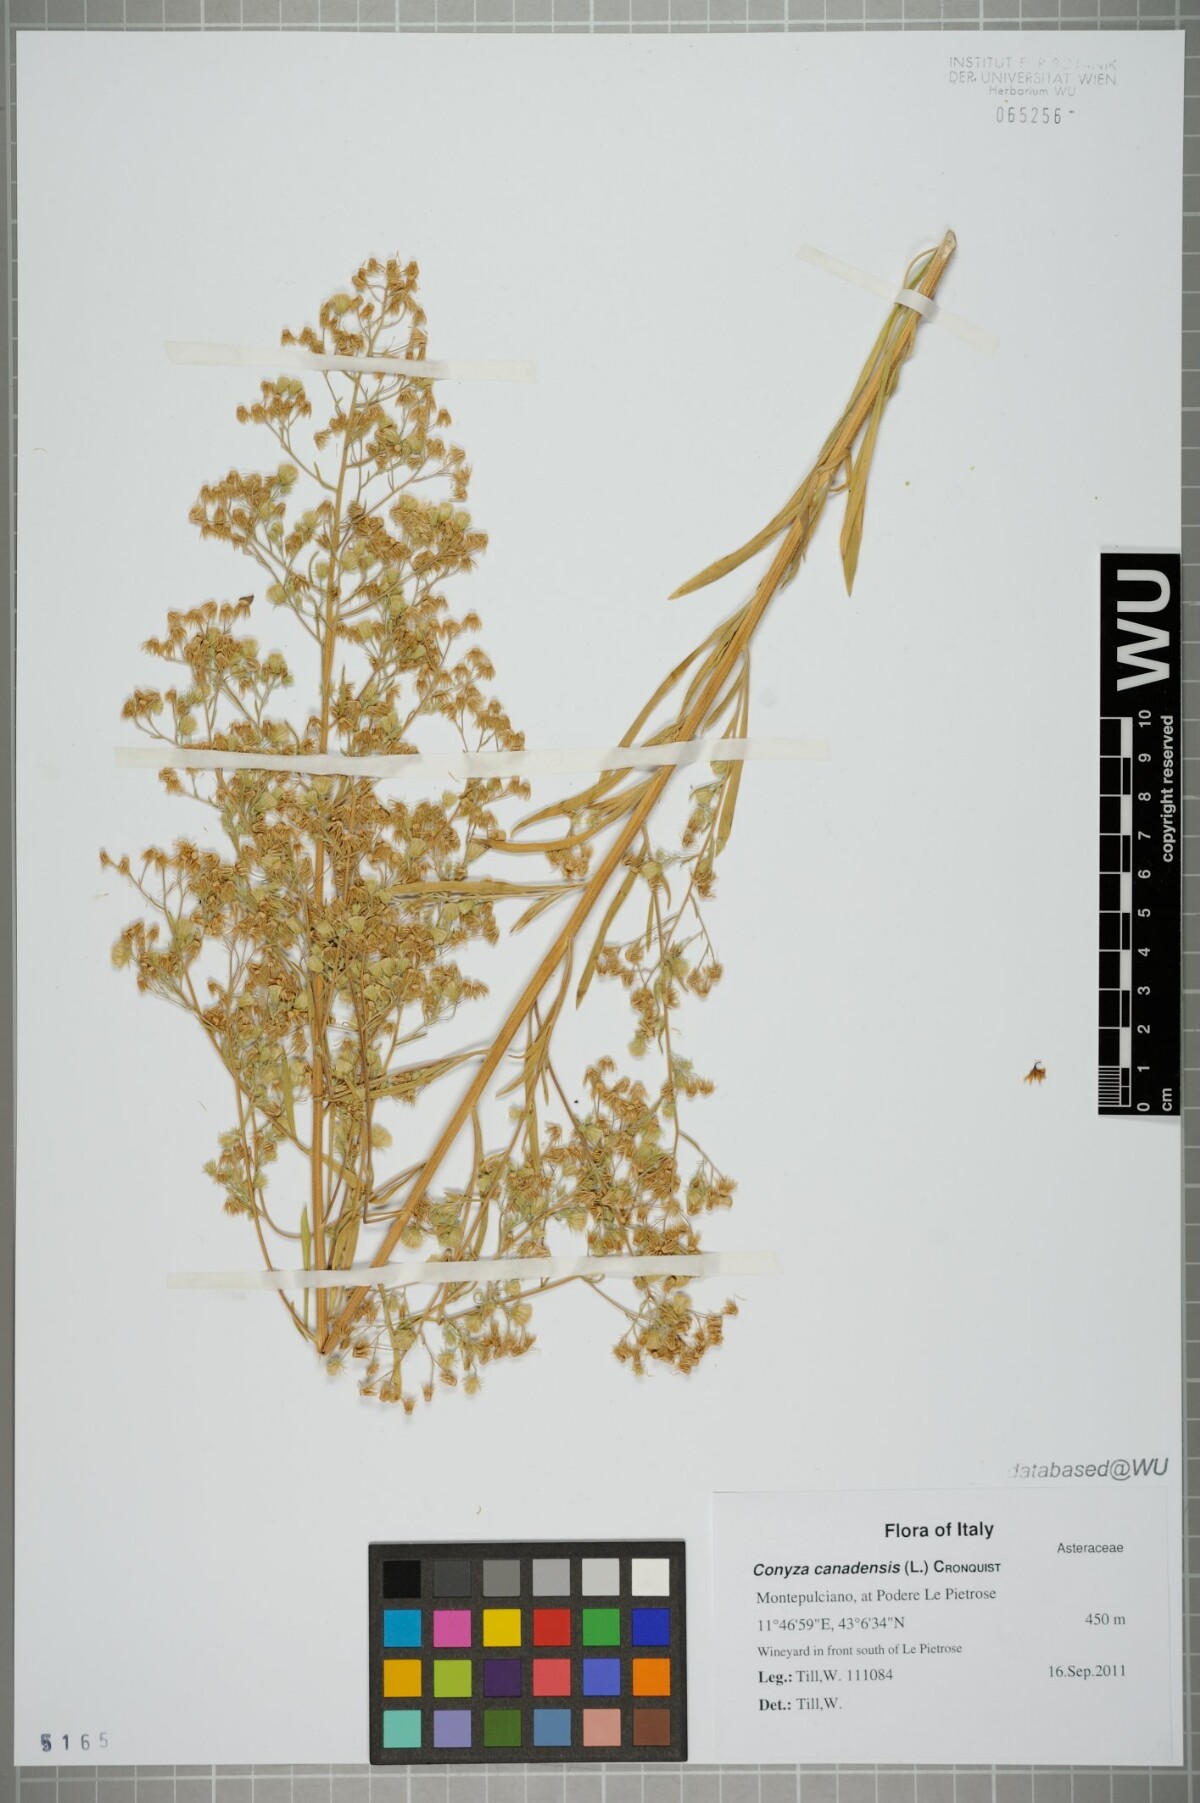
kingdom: Plantae
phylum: Tracheophyta
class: Magnoliopsida
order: Asterales
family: Asteraceae
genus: Erigeron
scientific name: Erigeron canadensis
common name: Canadian fleabane
